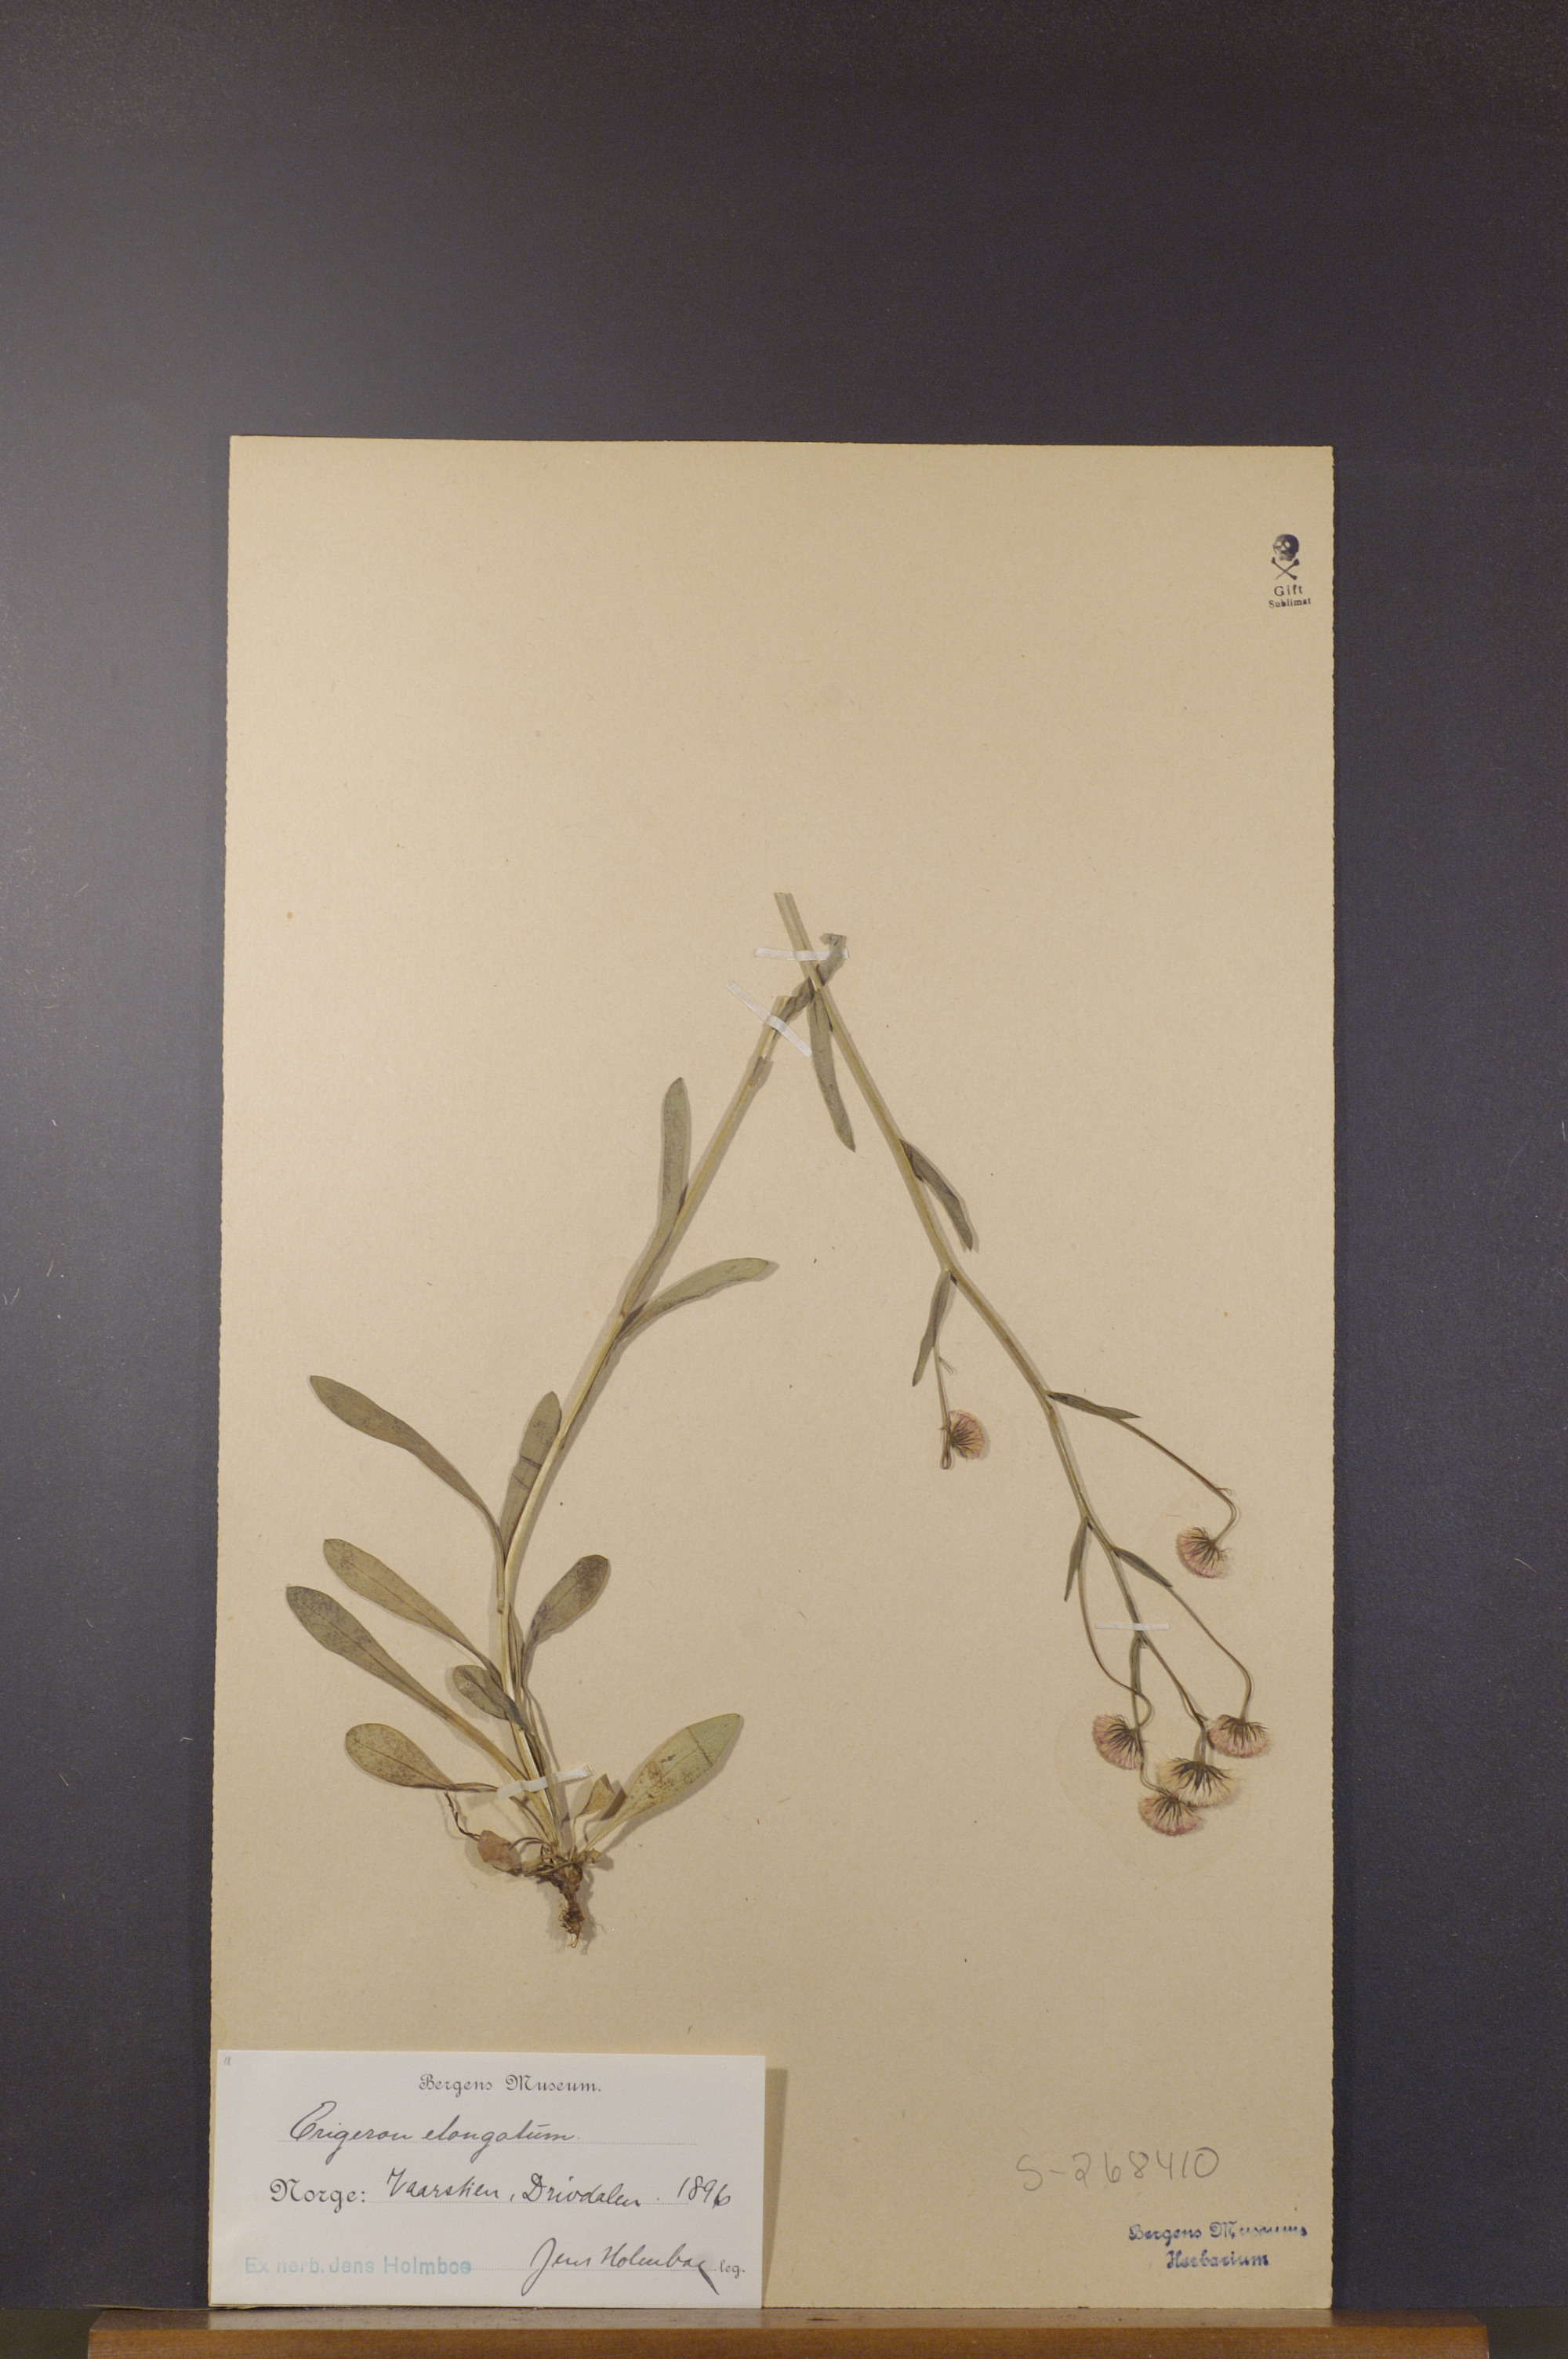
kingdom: Plantae
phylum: Tracheophyta
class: Magnoliopsida
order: Asterales
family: Asteraceae
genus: Erigeron
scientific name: Erigeron politus
